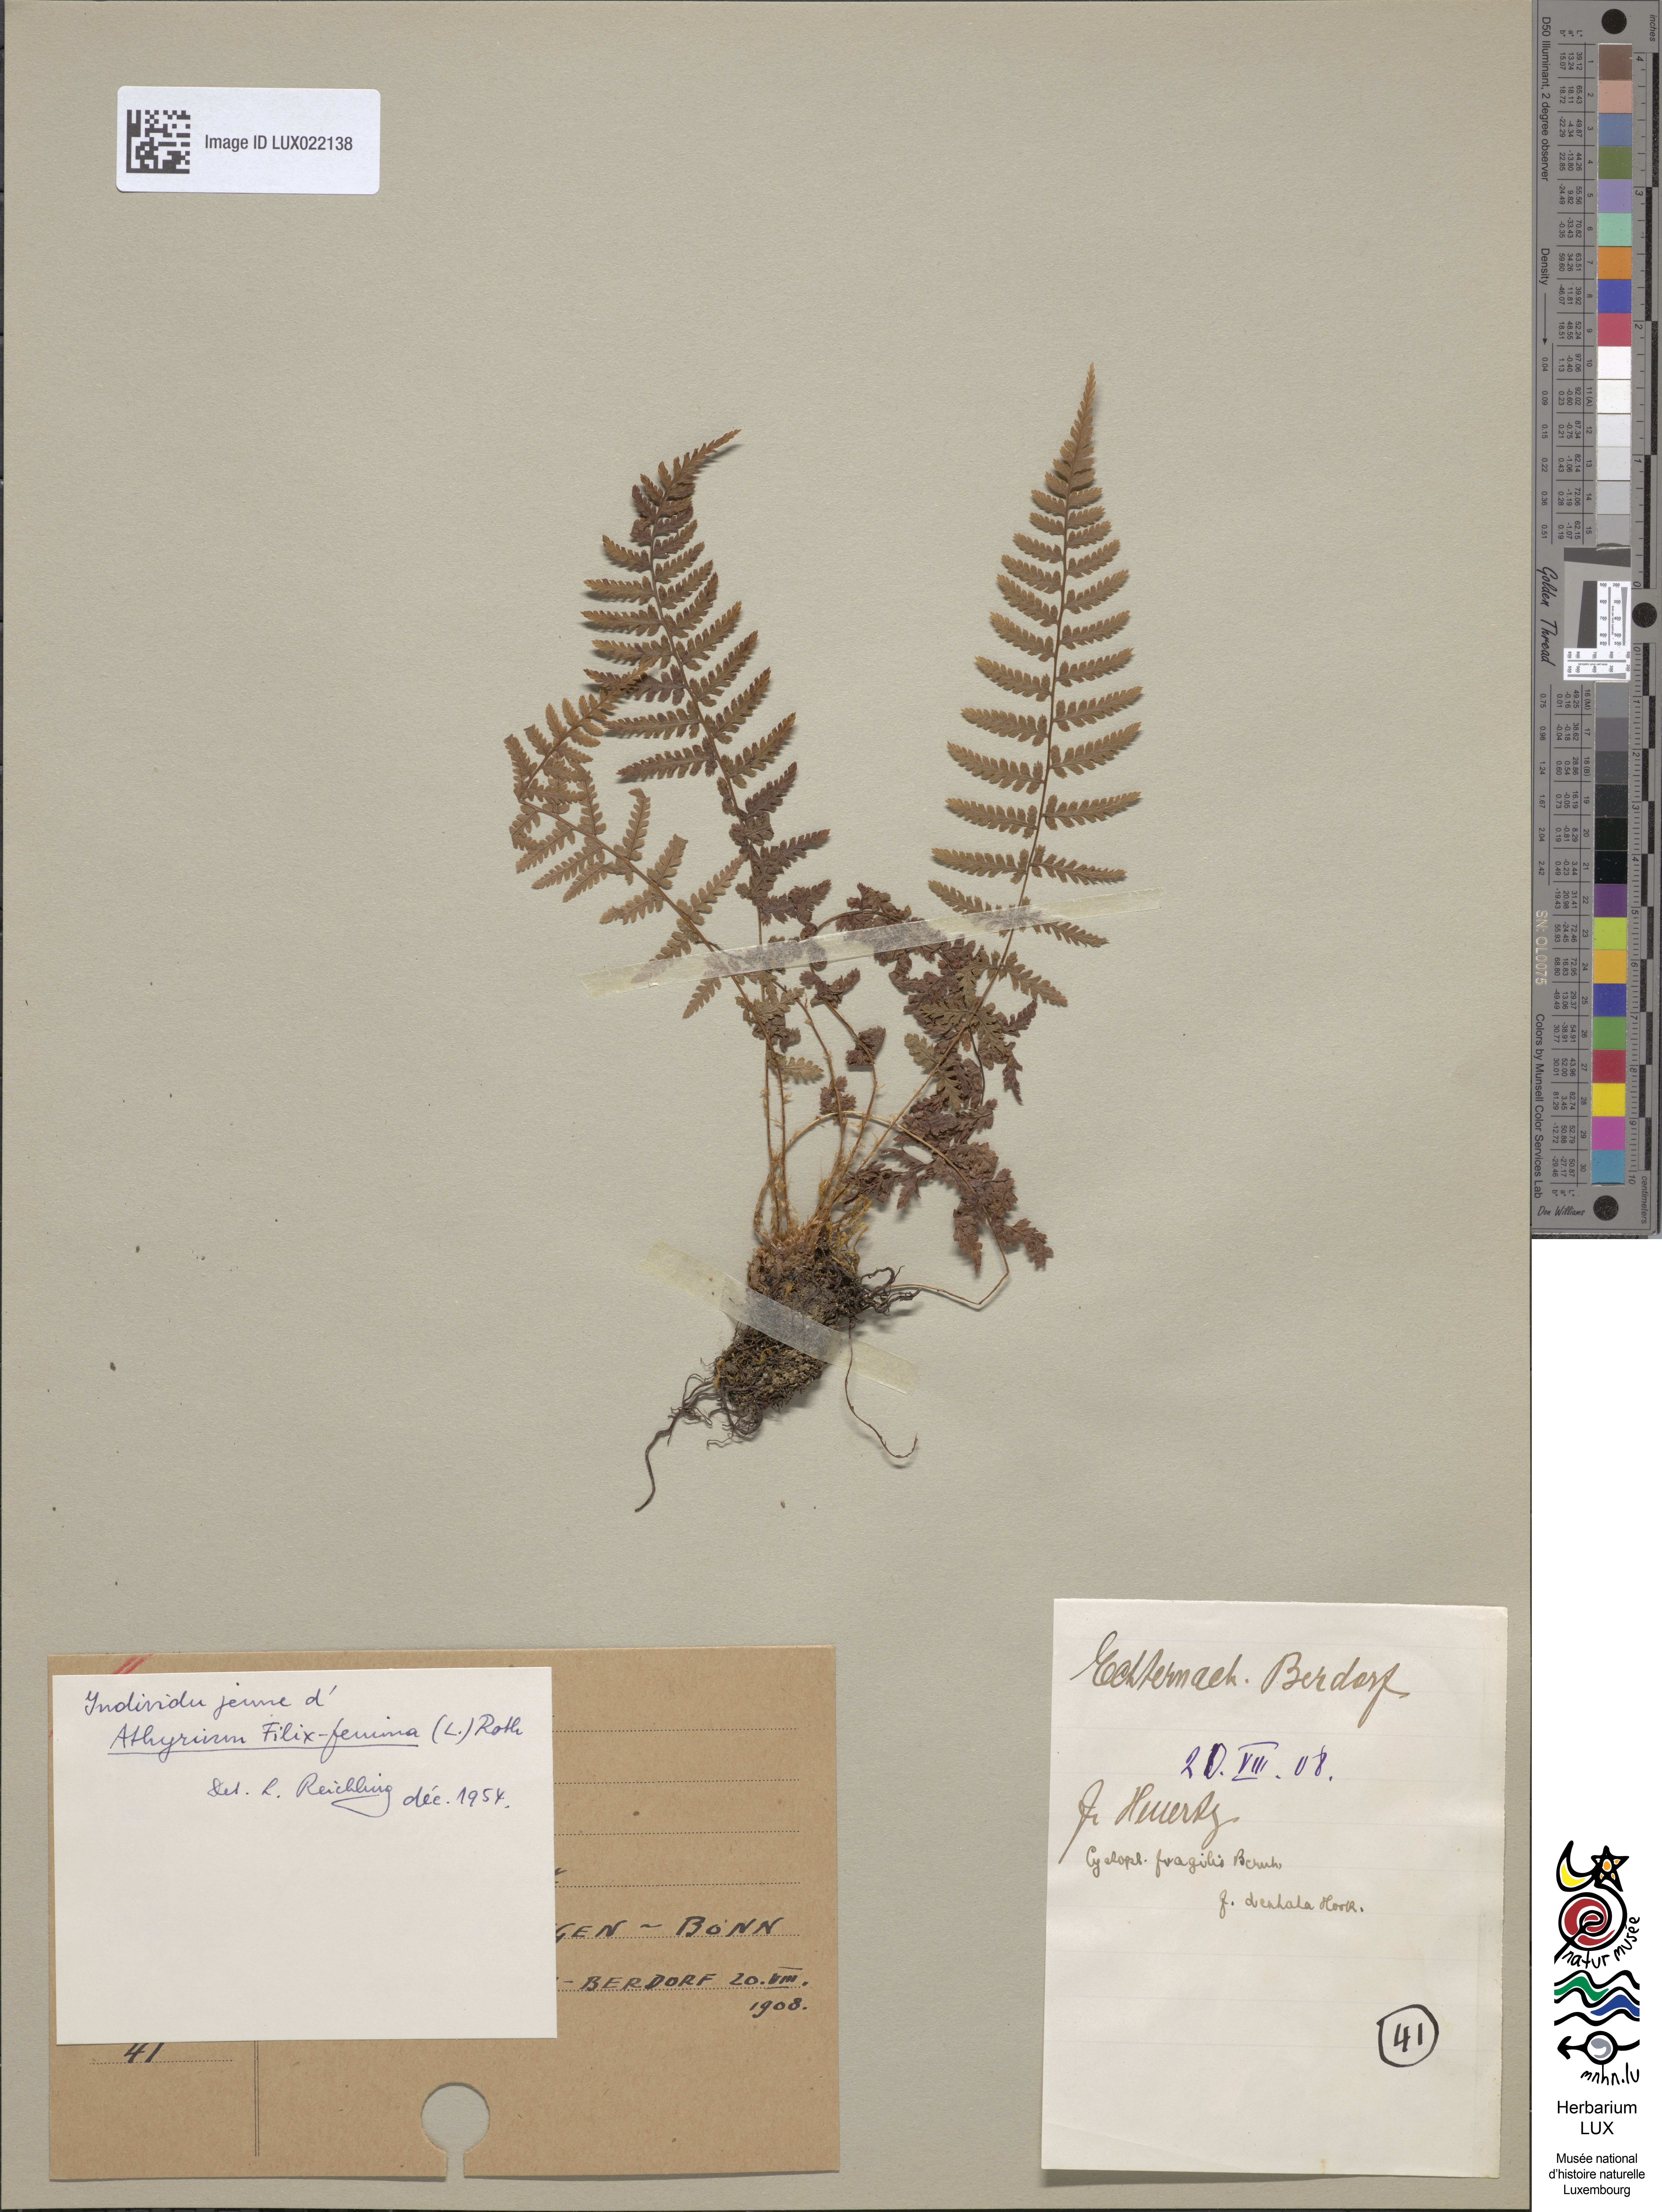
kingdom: Plantae
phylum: Tracheophyta
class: Polypodiopsida
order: Polypodiales
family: Athyriaceae
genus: Athyrium
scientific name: Athyrium filix-femina
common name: Lady fern
